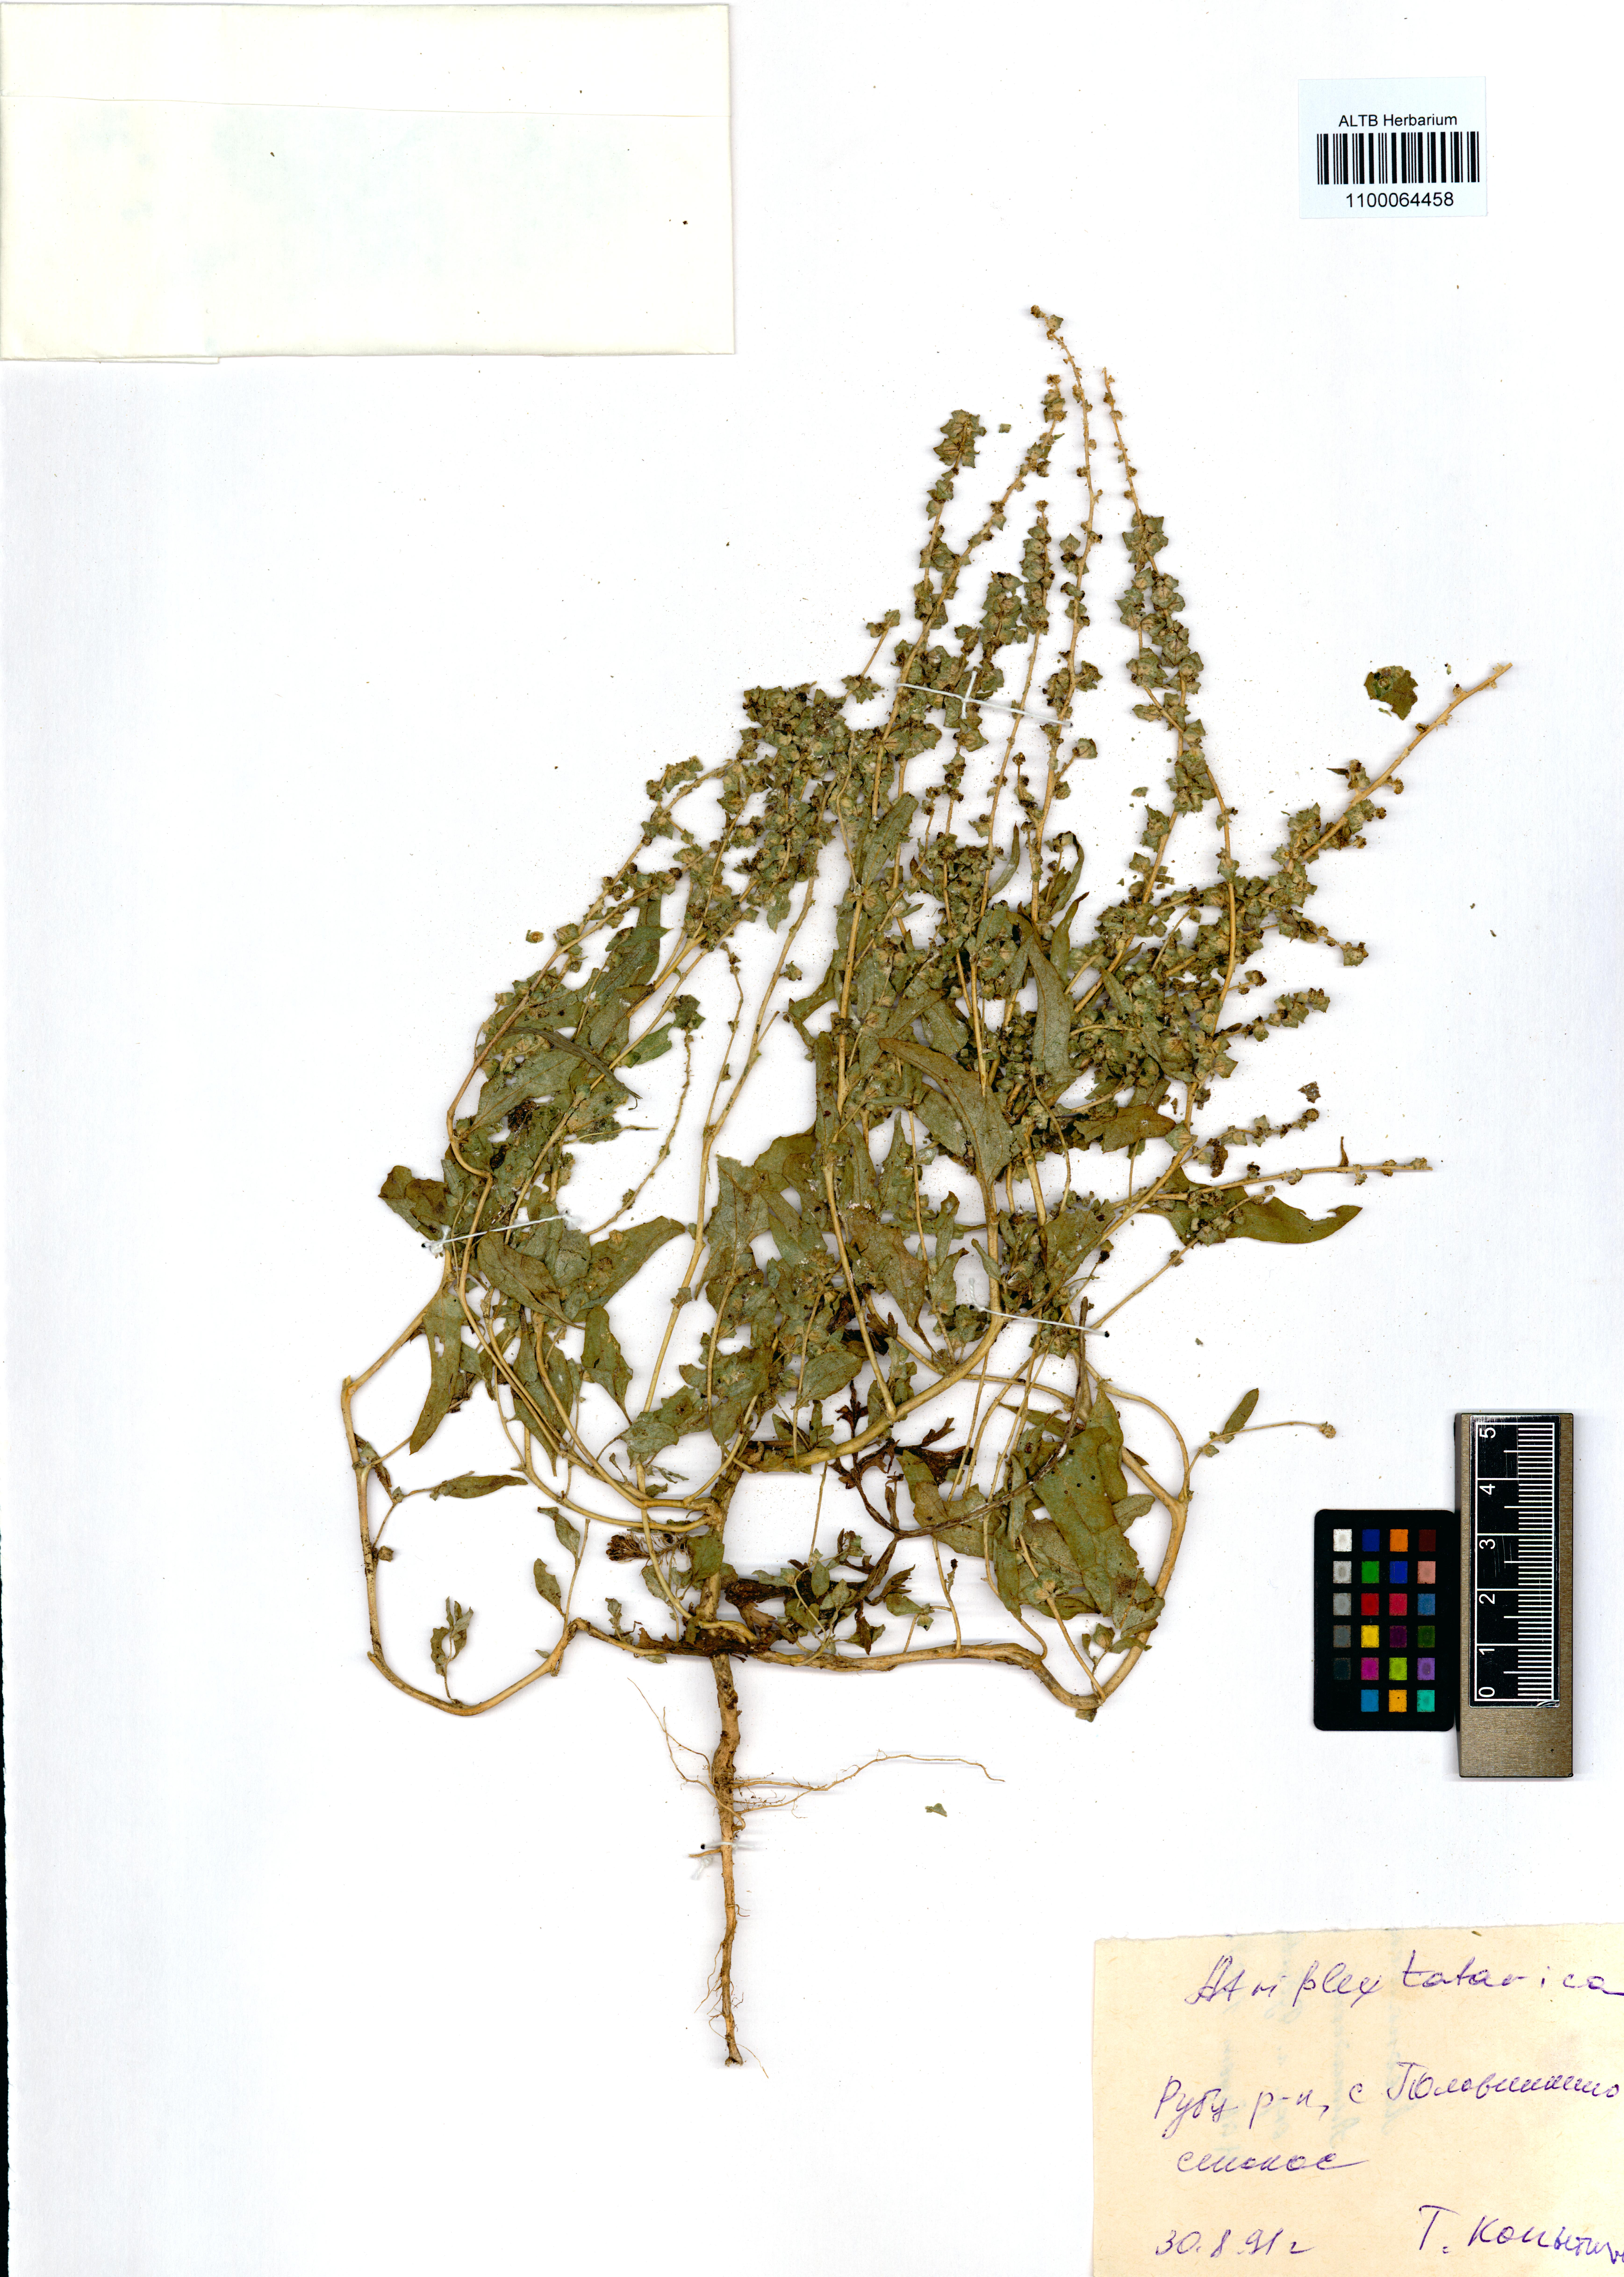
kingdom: Plantae
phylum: Tracheophyta
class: Magnoliopsida
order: Caryophyllales
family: Amaranthaceae
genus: Atriplex
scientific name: Atriplex tatarica
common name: Tatarian orache
